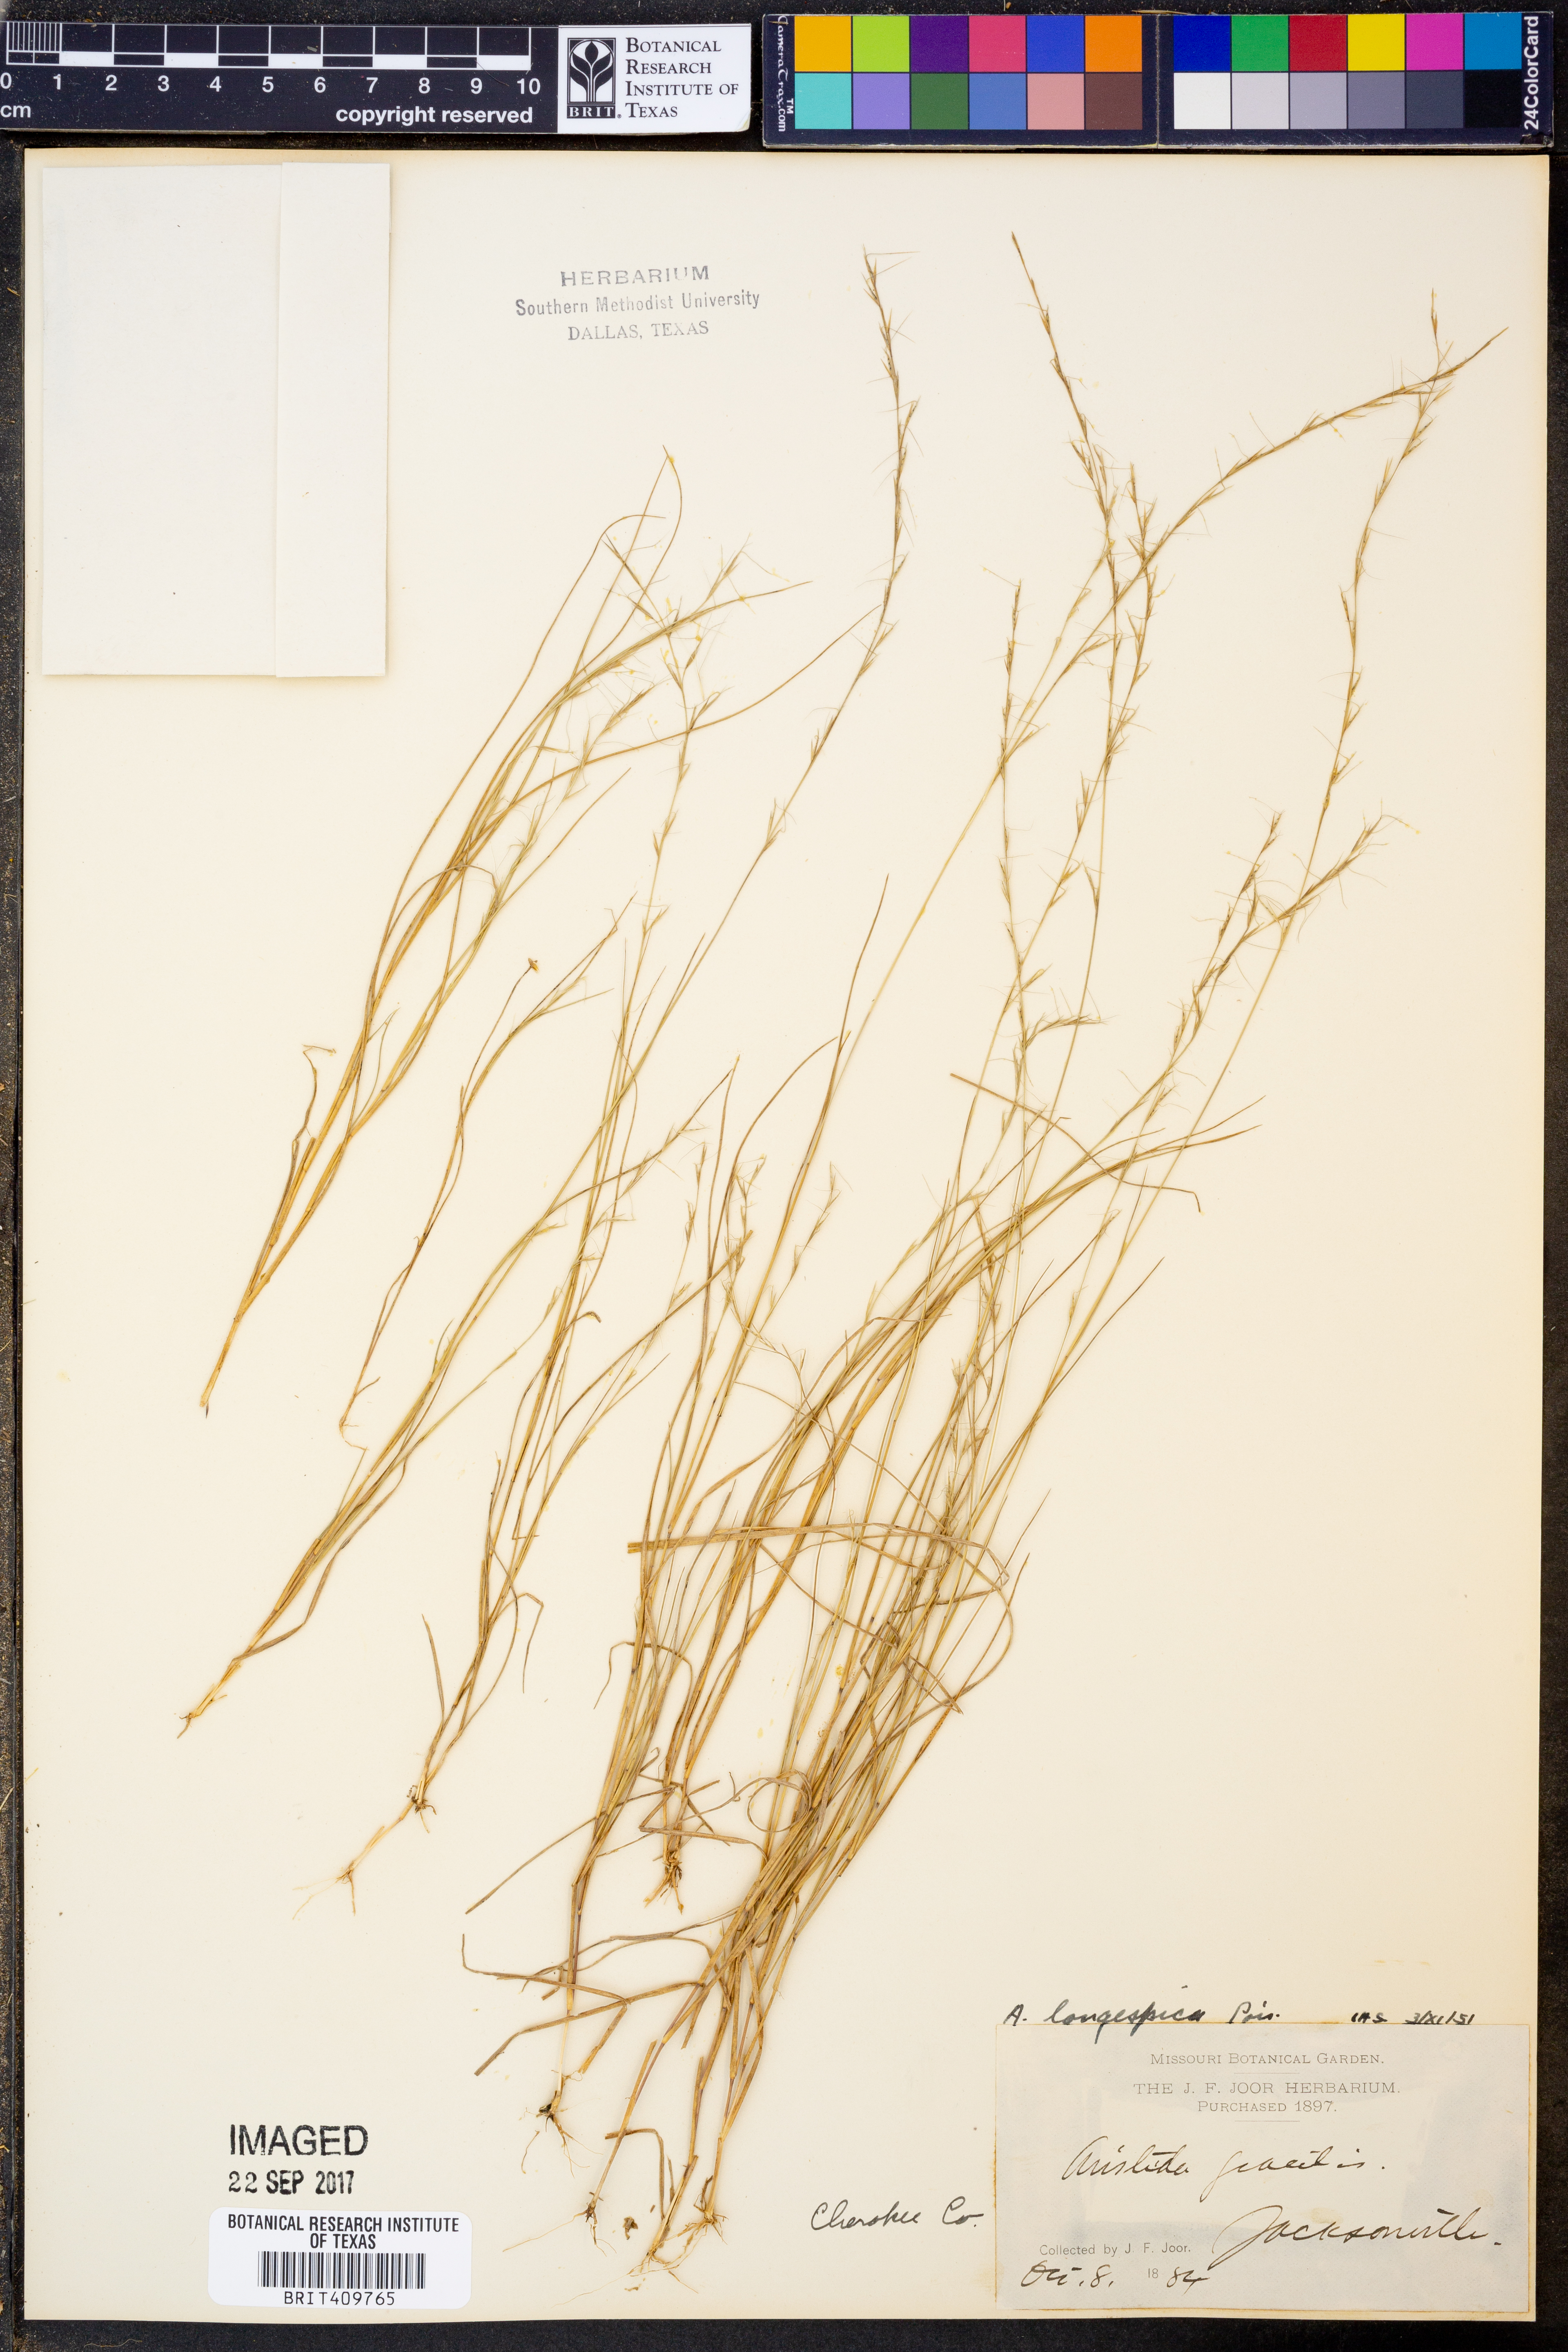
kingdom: Plantae
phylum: Tracheophyta
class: Liliopsida
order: Poales
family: Poaceae
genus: Aristida
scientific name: Aristida longespica
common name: Long-spiked triple-awned grass
